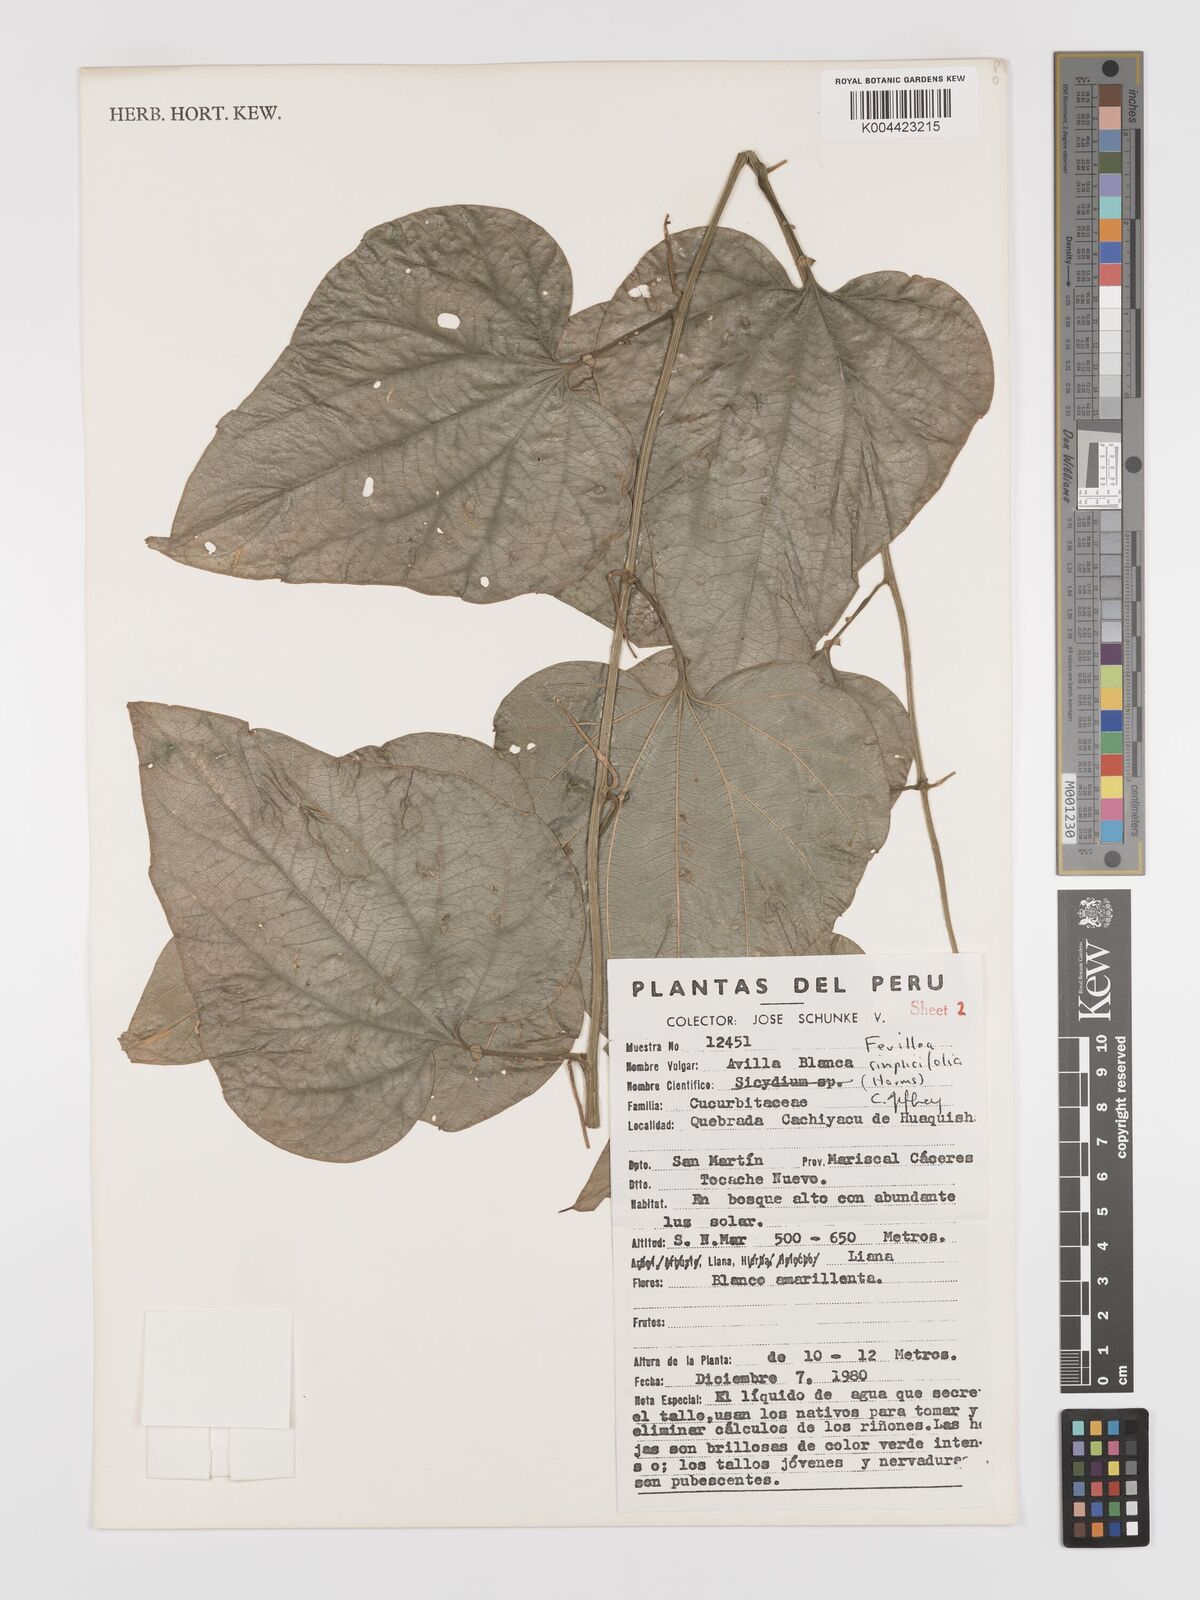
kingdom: Plantae
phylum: Tracheophyta
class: Magnoliopsida
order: Cucurbitales
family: Cucurbitaceae
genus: Fevillea
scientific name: Fevillea pedatifolia
